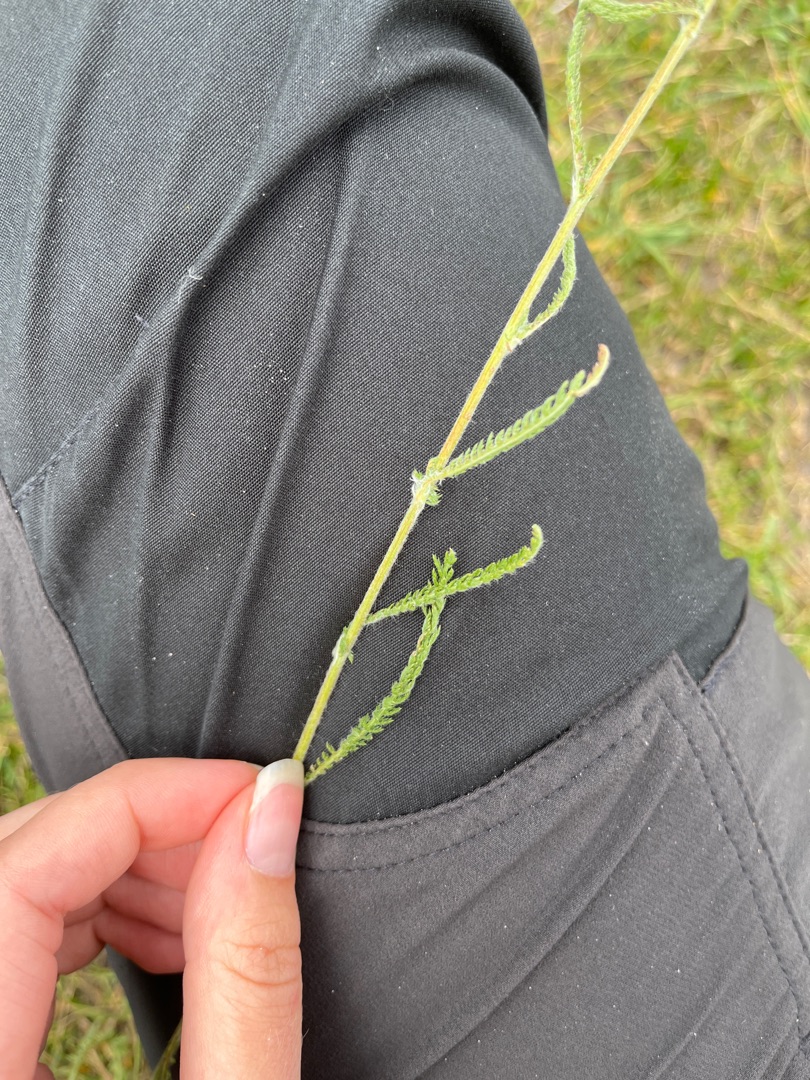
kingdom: Plantae
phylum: Tracheophyta
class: Magnoliopsida
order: Asterales
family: Asteraceae
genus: Achillea
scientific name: Achillea millefolium
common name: Almindelig røllike
